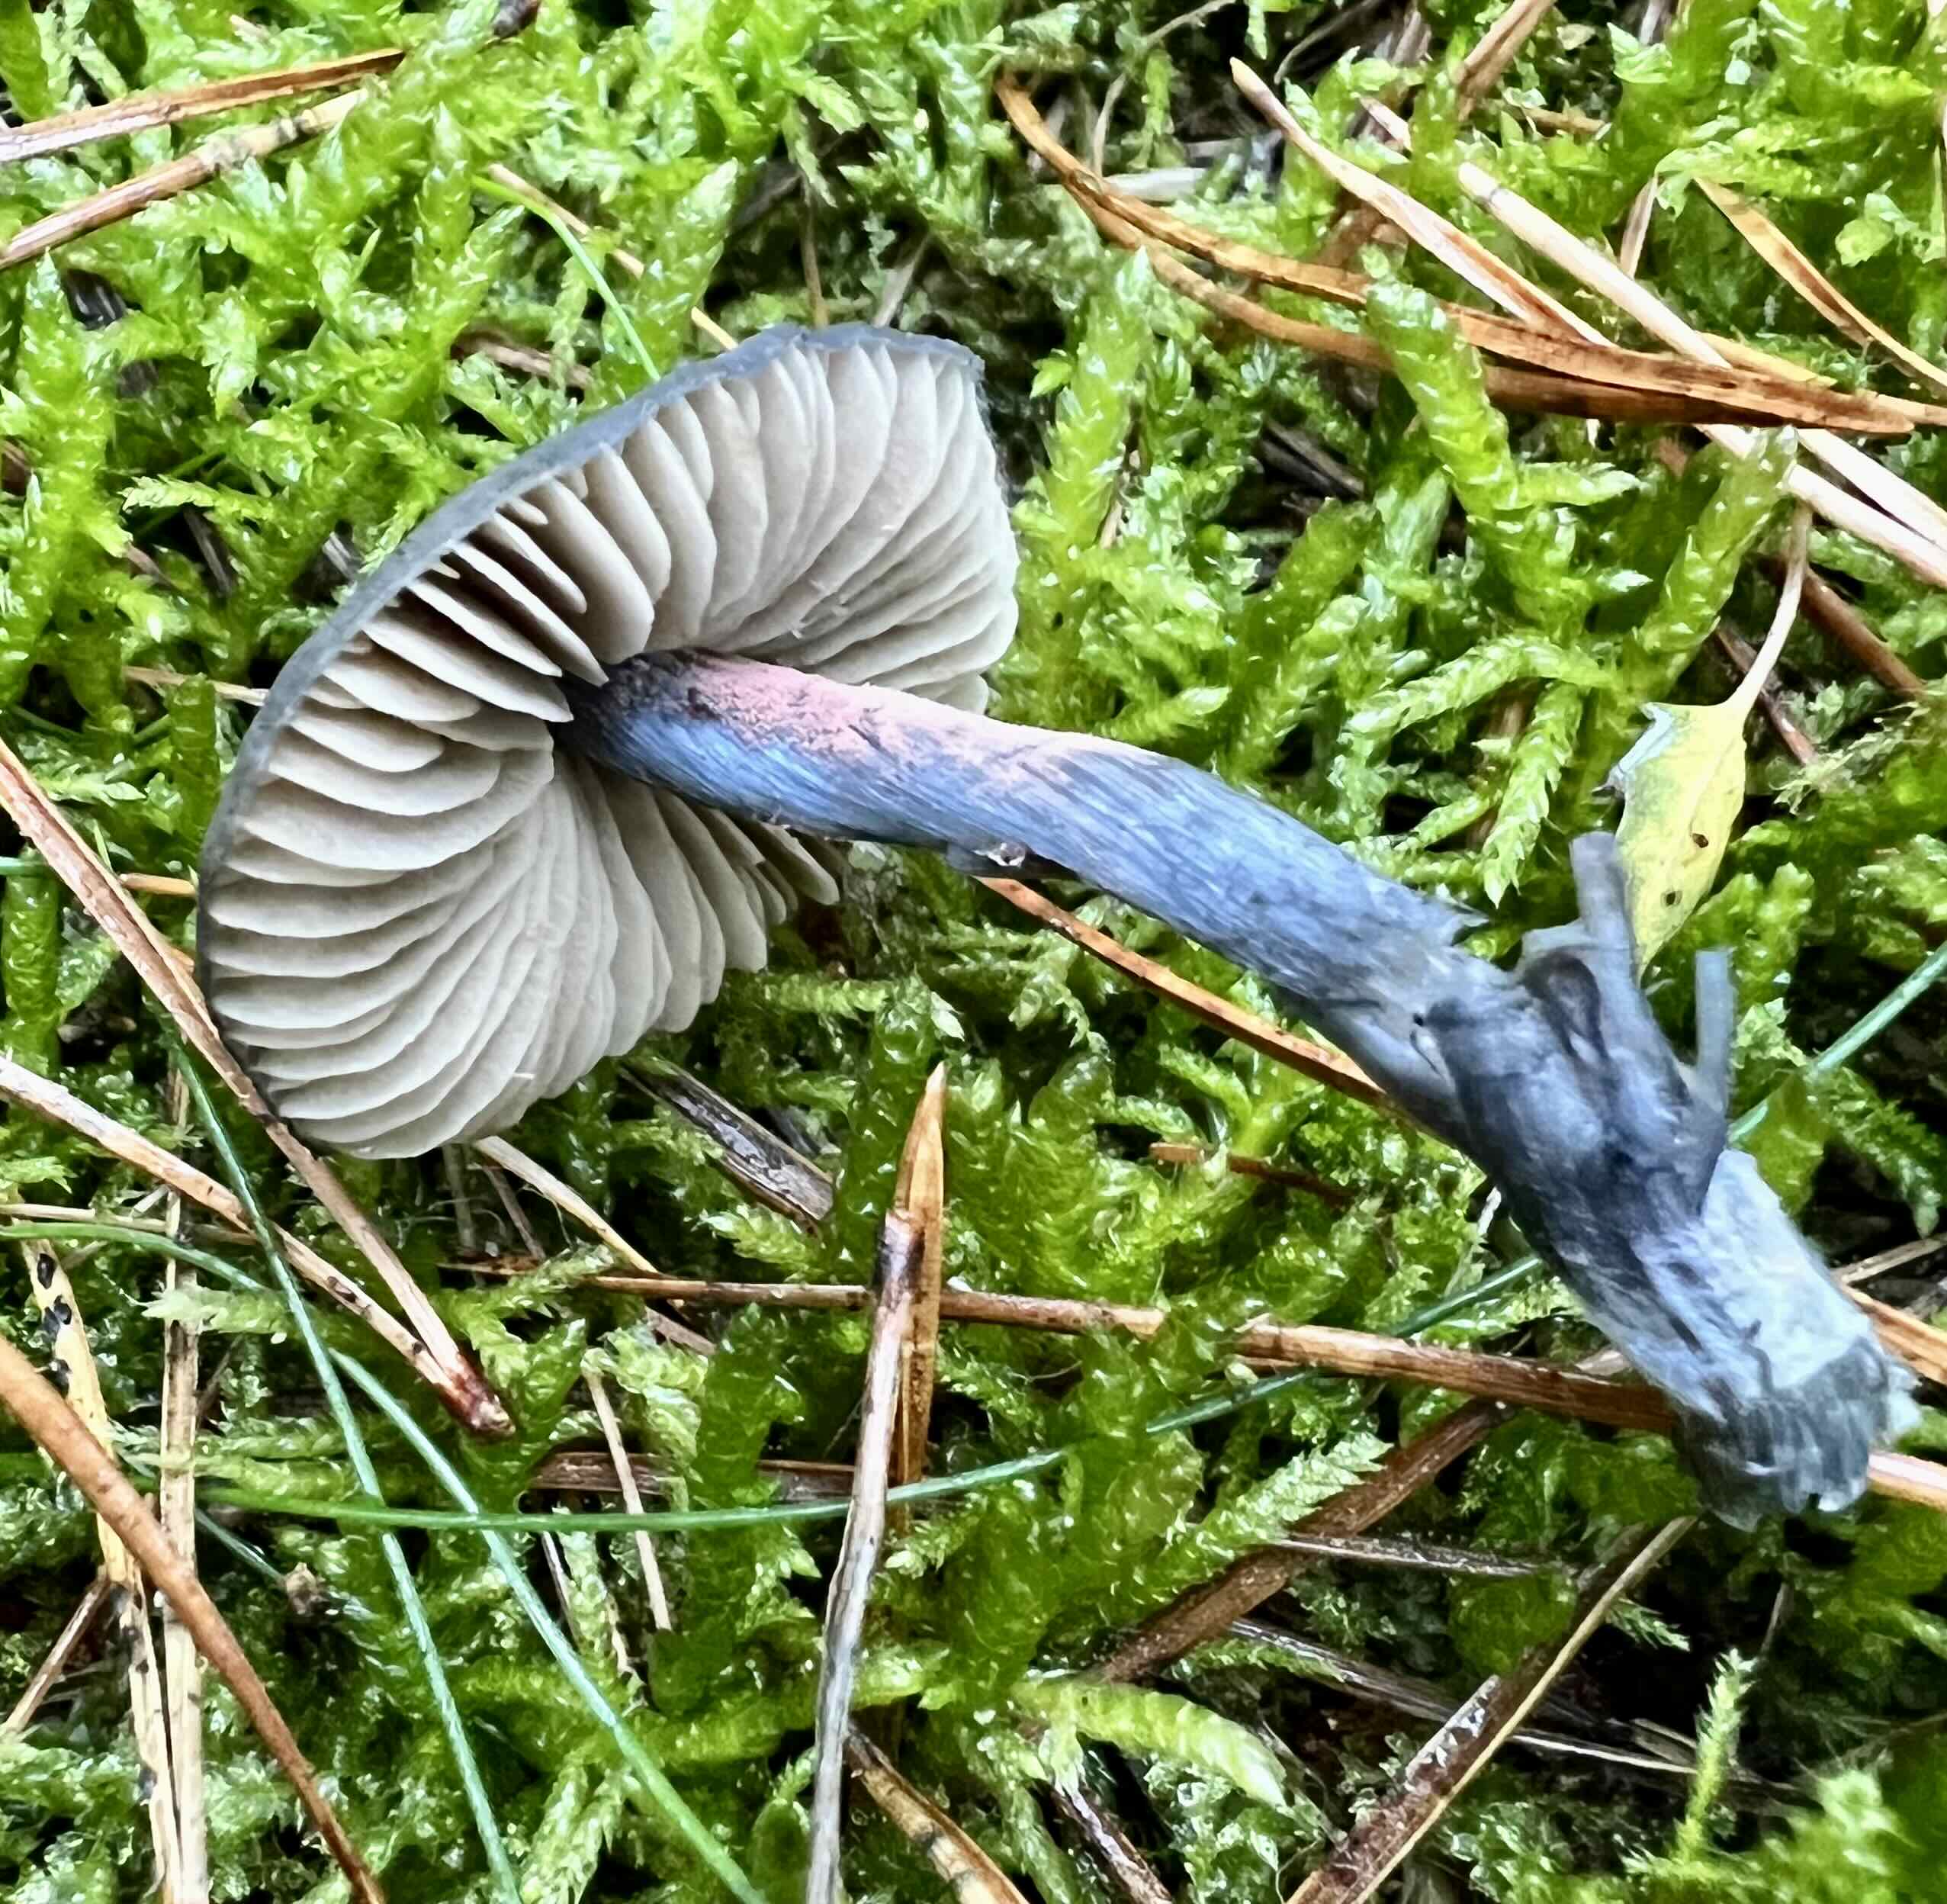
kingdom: Fungi
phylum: Basidiomycota
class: Agaricomycetes
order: Agaricales
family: Entolomataceae
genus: Entocybe
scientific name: Entocybe nitida
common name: stålblå rødblad
